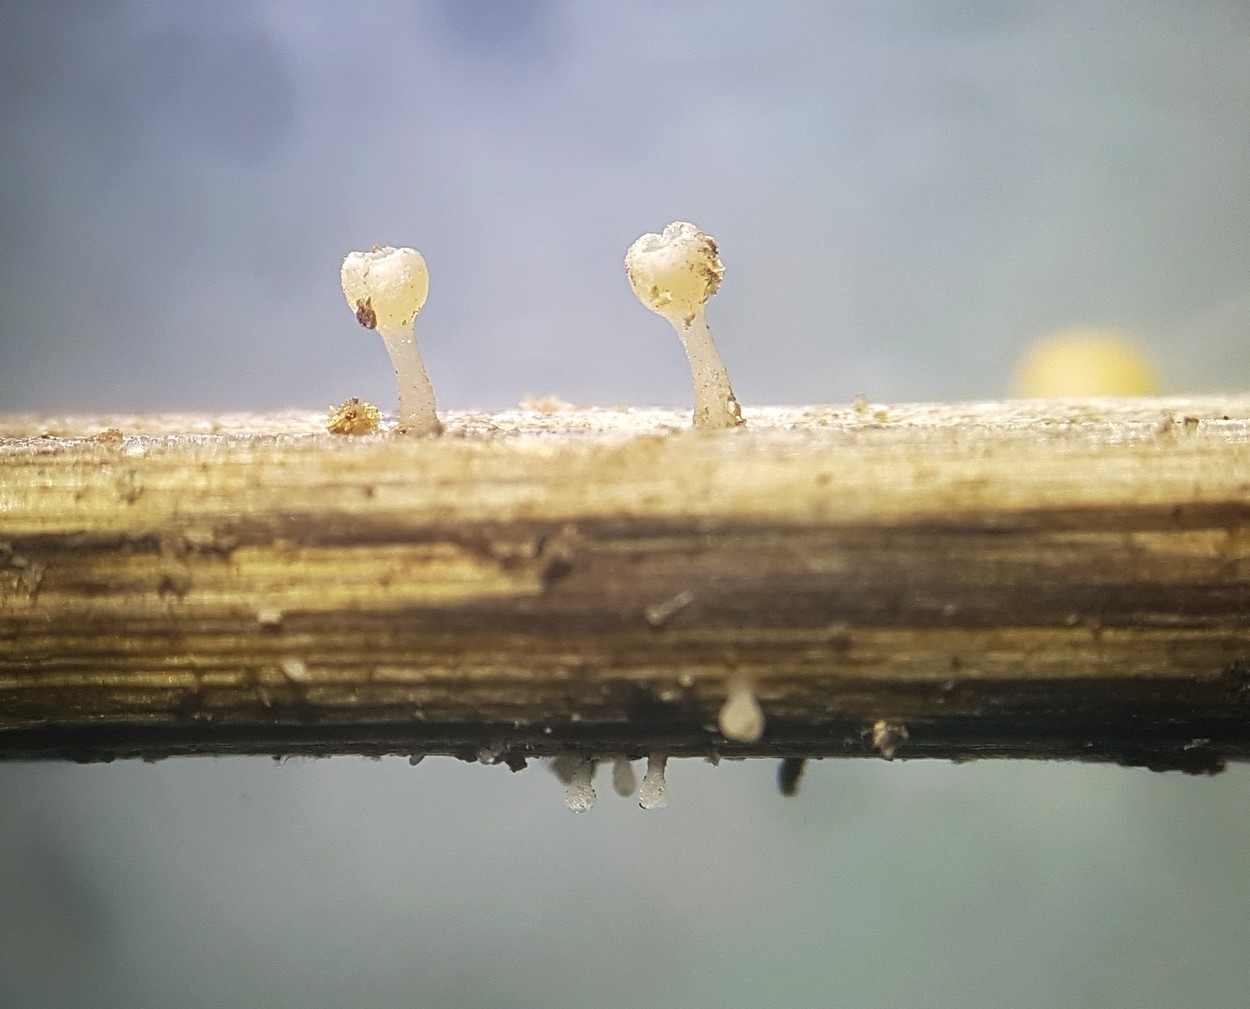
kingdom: Fungi
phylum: Ascomycota
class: Leotiomycetes
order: Helotiales
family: Helotiaceae
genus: Cyathicula
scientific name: Cyathicula cyathoidea
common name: pokal-stilkskive
